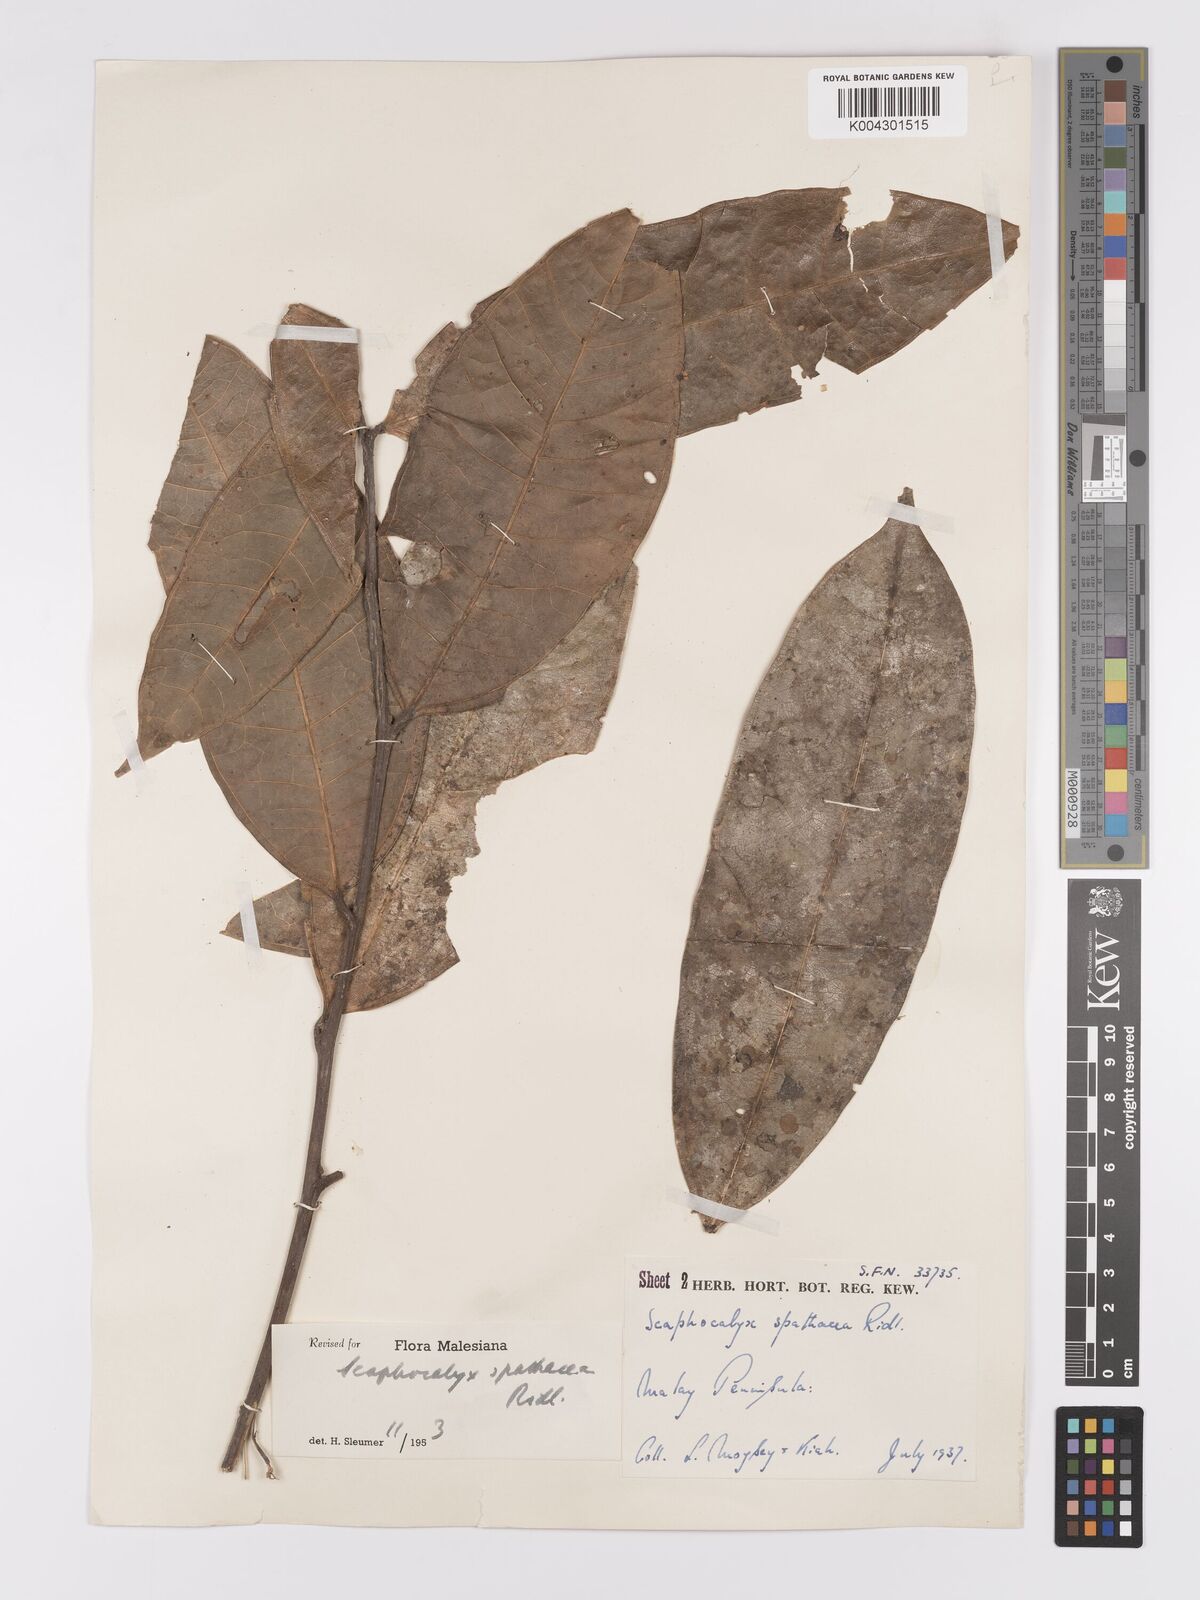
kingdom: Plantae
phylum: Tracheophyta
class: Magnoliopsida
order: Malpighiales
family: Achariaceae
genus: Scaphocalyx
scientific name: Scaphocalyx spathacea
